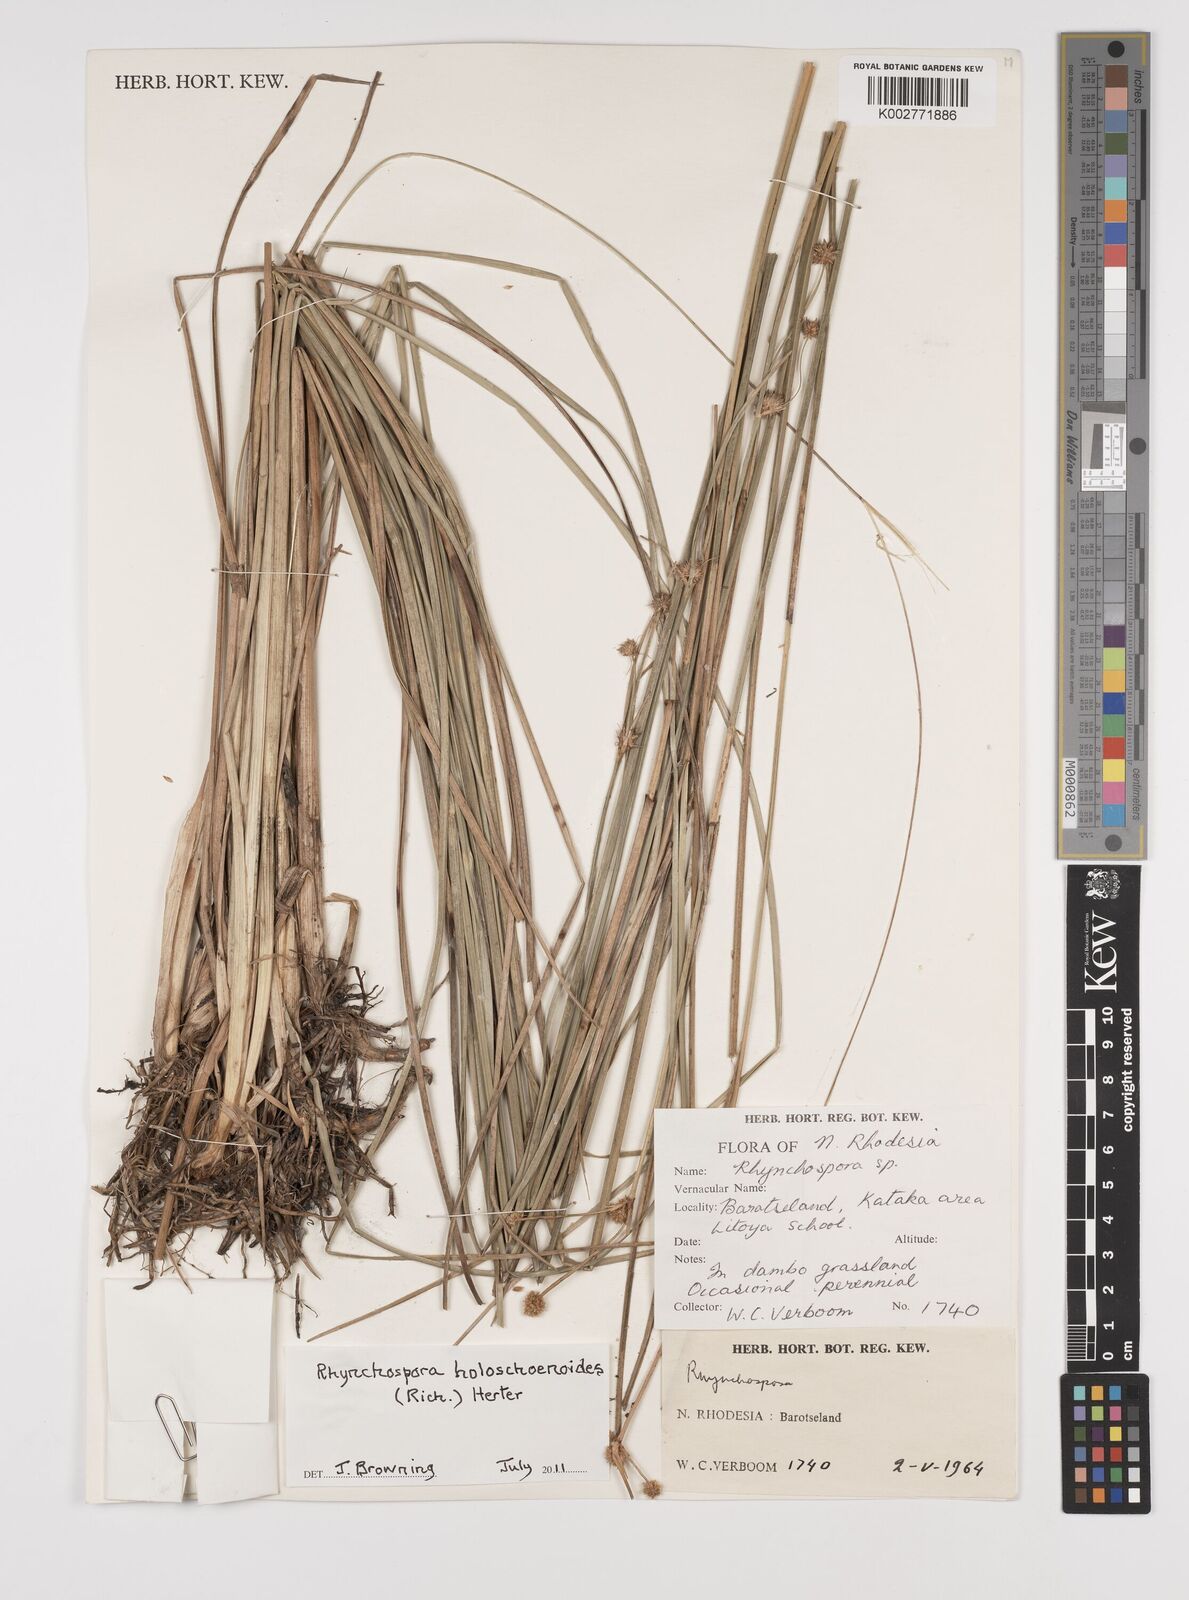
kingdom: Plantae
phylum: Tracheophyta
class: Liliopsida
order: Poales
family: Cyperaceae
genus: Rhynchospora
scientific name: Rhynchospora holoschoenoides
